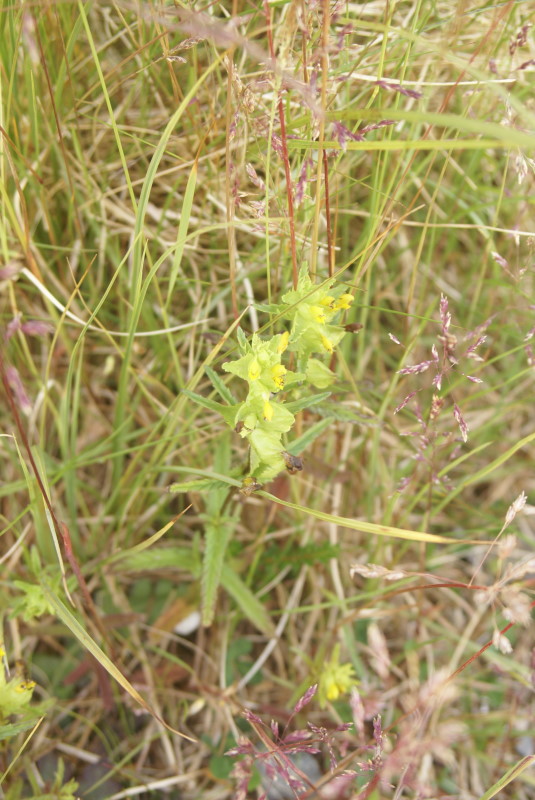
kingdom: Plantae
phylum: Tracheophyta
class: Magnoliopsida
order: Lamiales
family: Orobanchaceae
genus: Rhinanthus
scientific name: Rhinanthus serotinus
